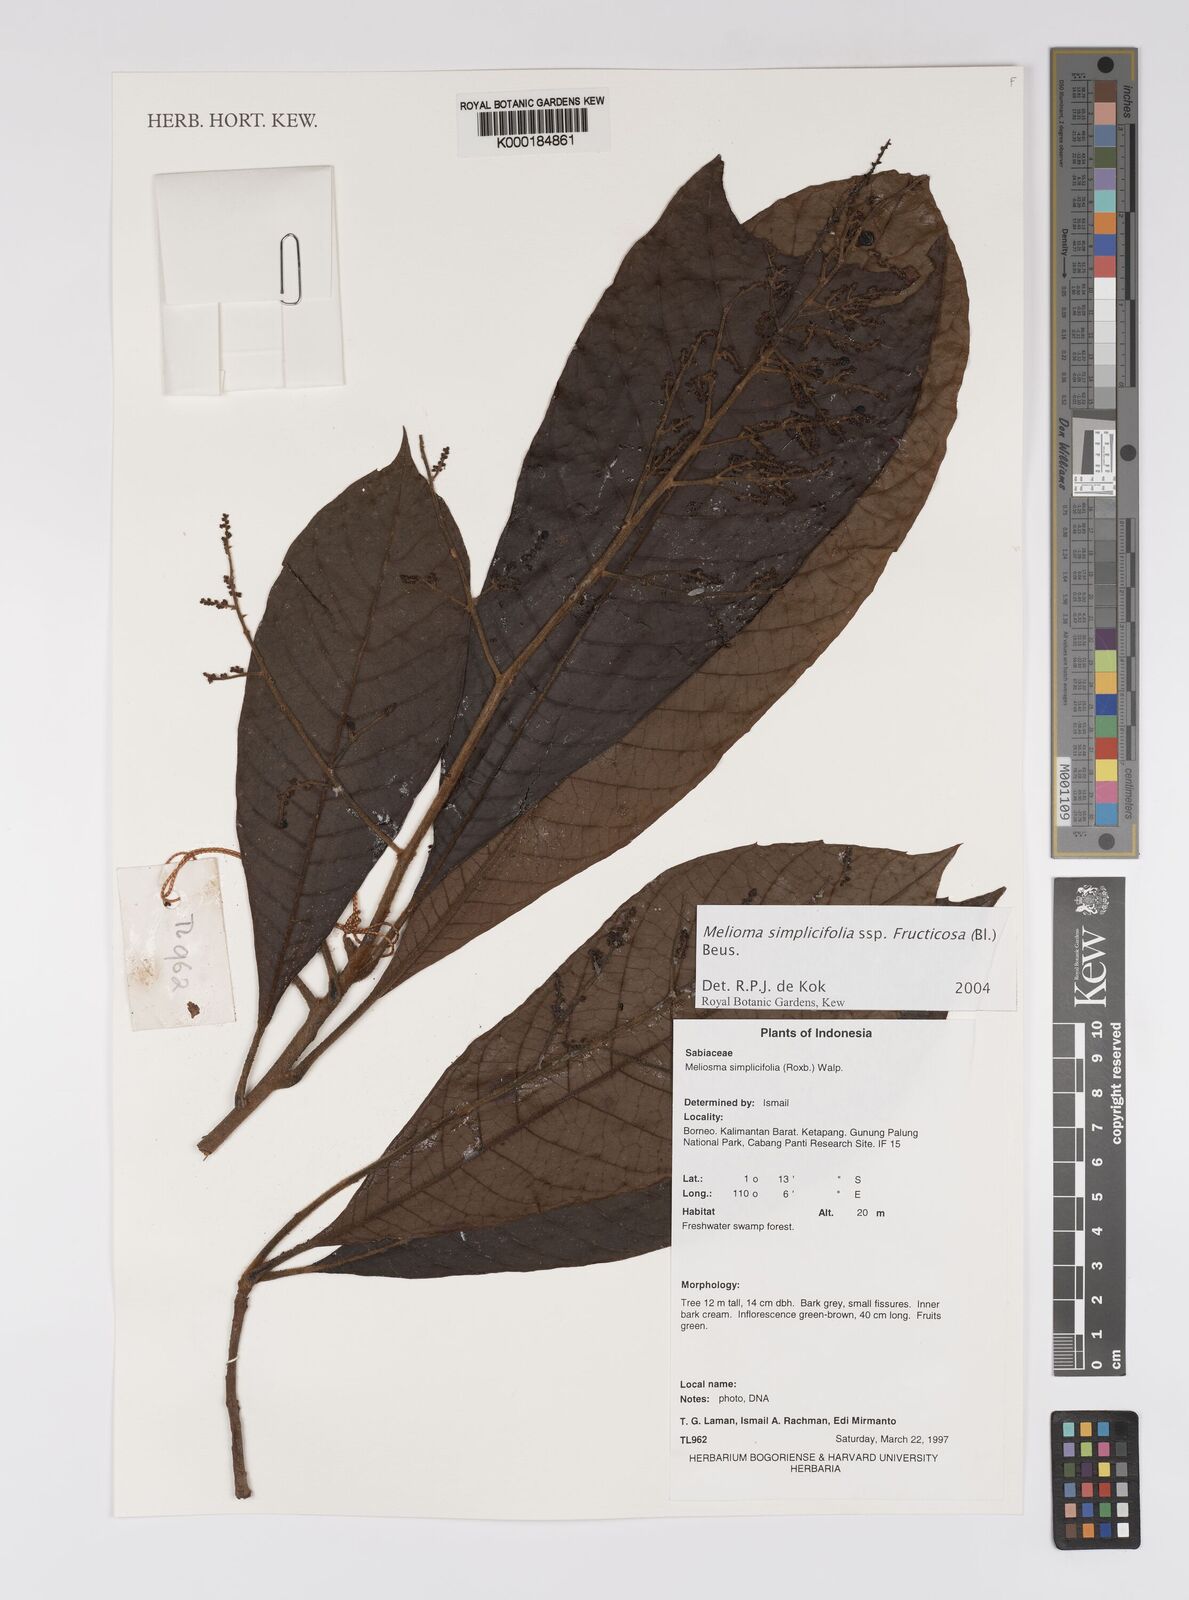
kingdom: Plantae
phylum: Tracheophyta
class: Magnoliopsida
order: Proteales
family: Sabiaceae
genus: Meliosma
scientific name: Meliosma simplicifolia
